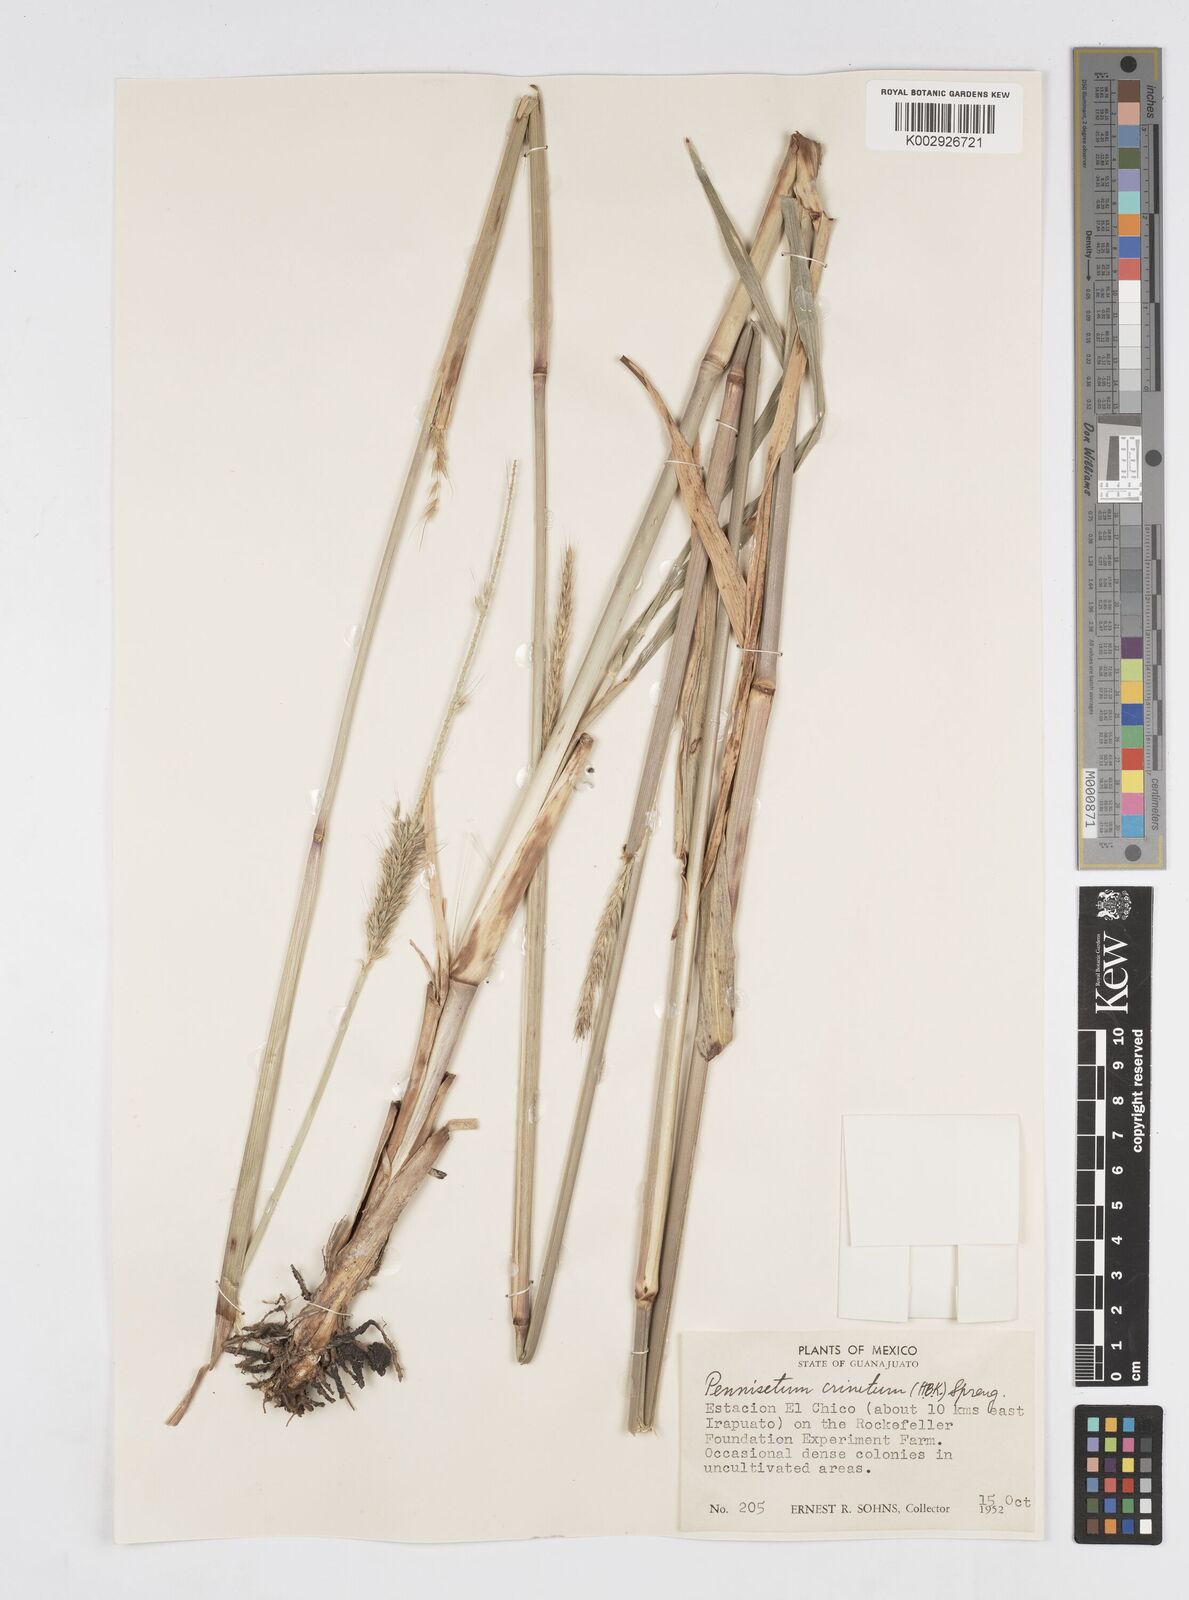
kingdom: Plantae
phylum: Tracheophyta
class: Liliopsida
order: Poales
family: Poaceae
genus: Cenchrus
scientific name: Cenchrus michoacanus
